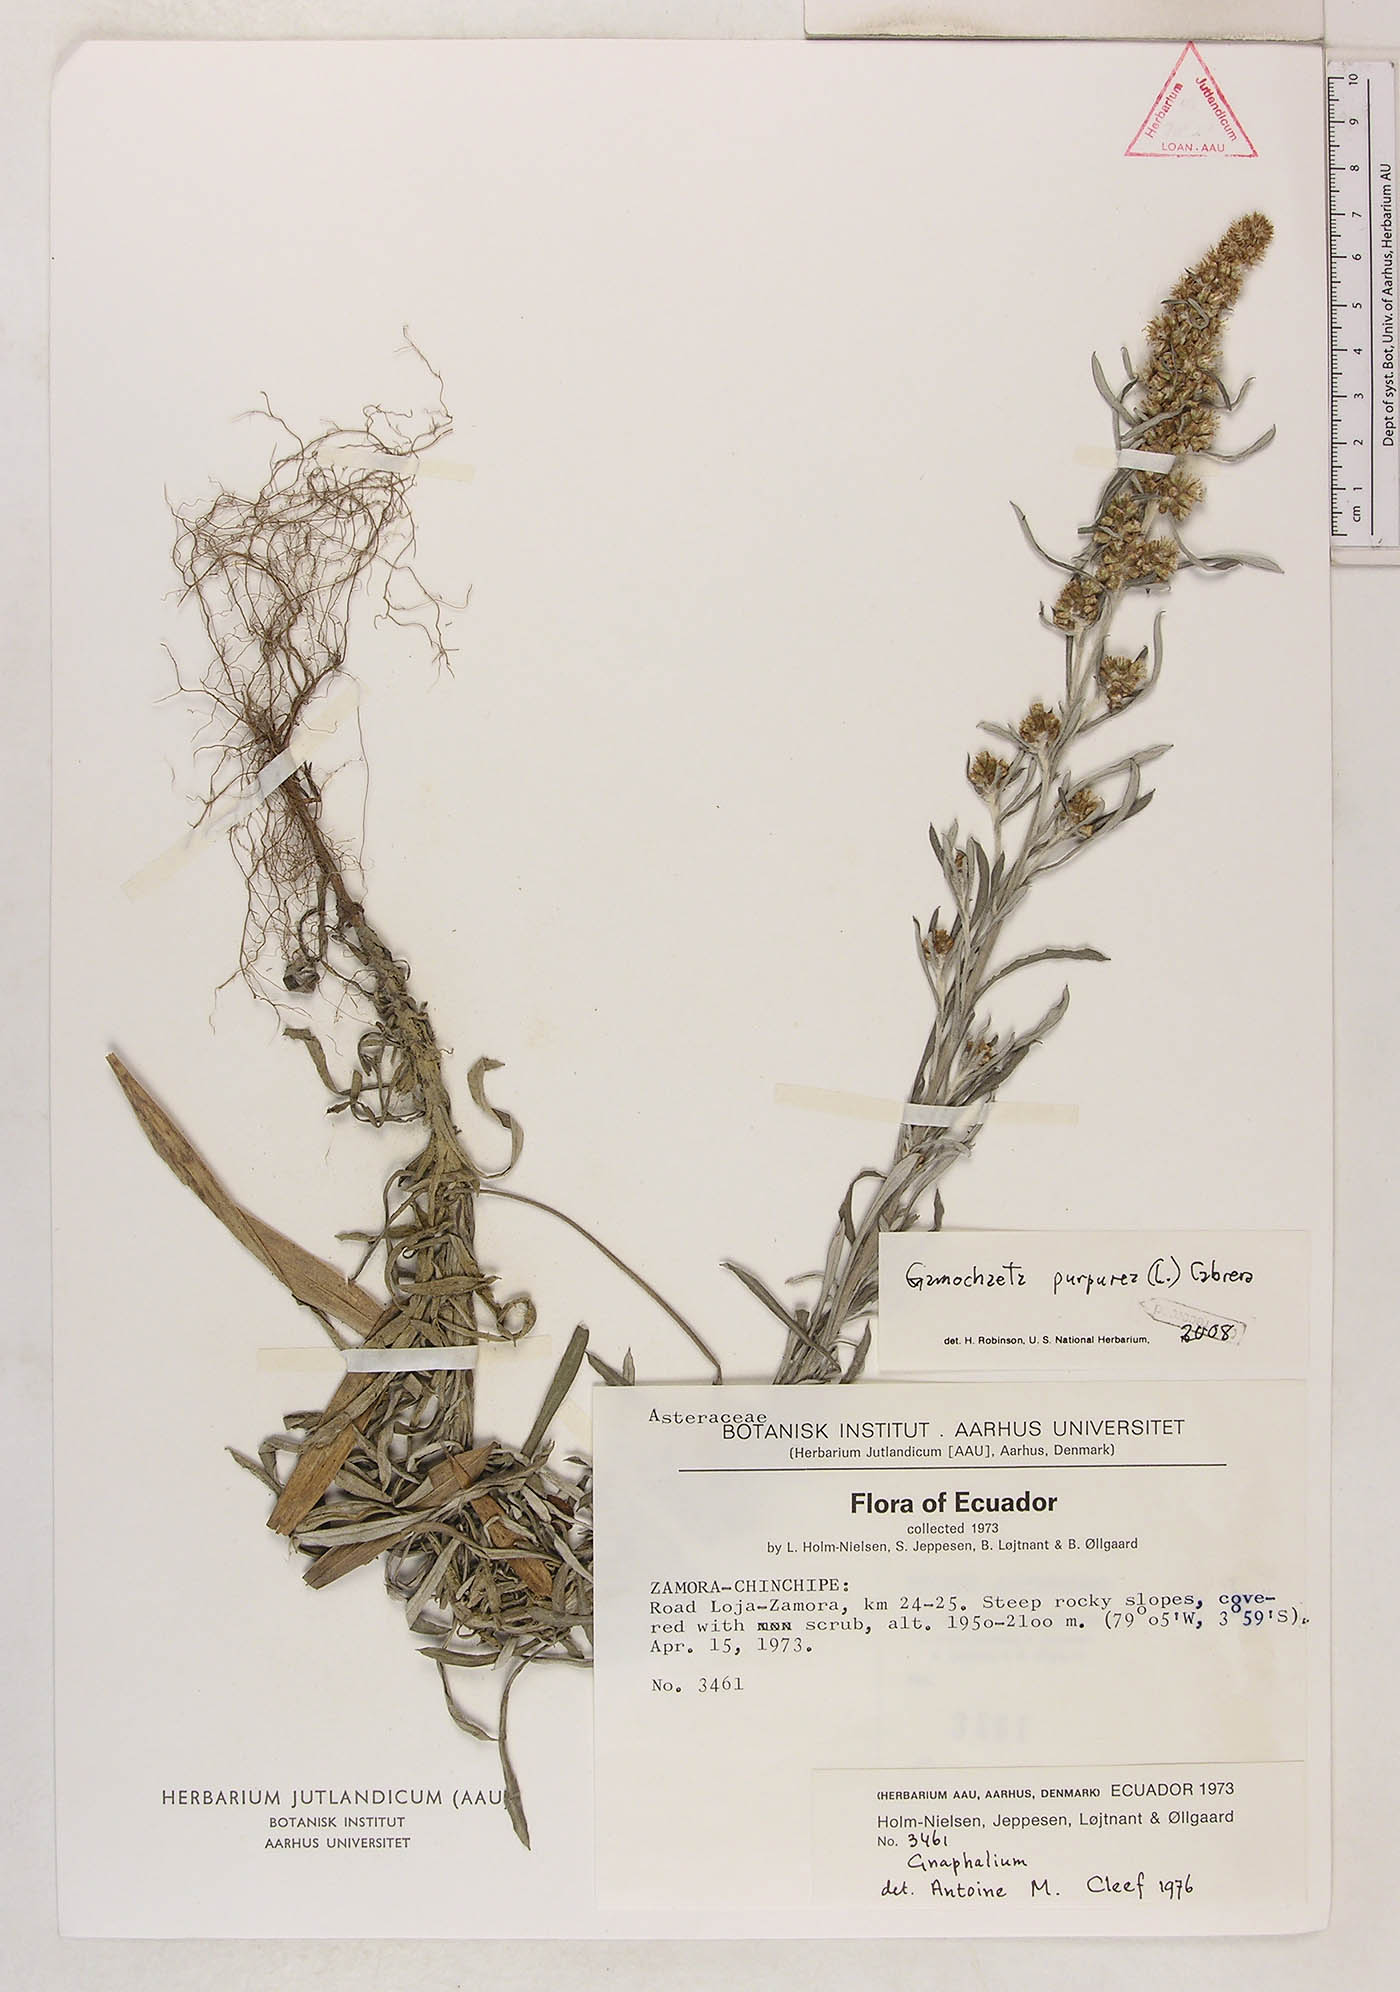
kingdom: Plantae
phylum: Tracheophyta
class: Magnoliopsida
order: Asterales
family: Asteraceae
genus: Gamochaeta
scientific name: Gamochaeta purpurea
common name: Purple cudweed
